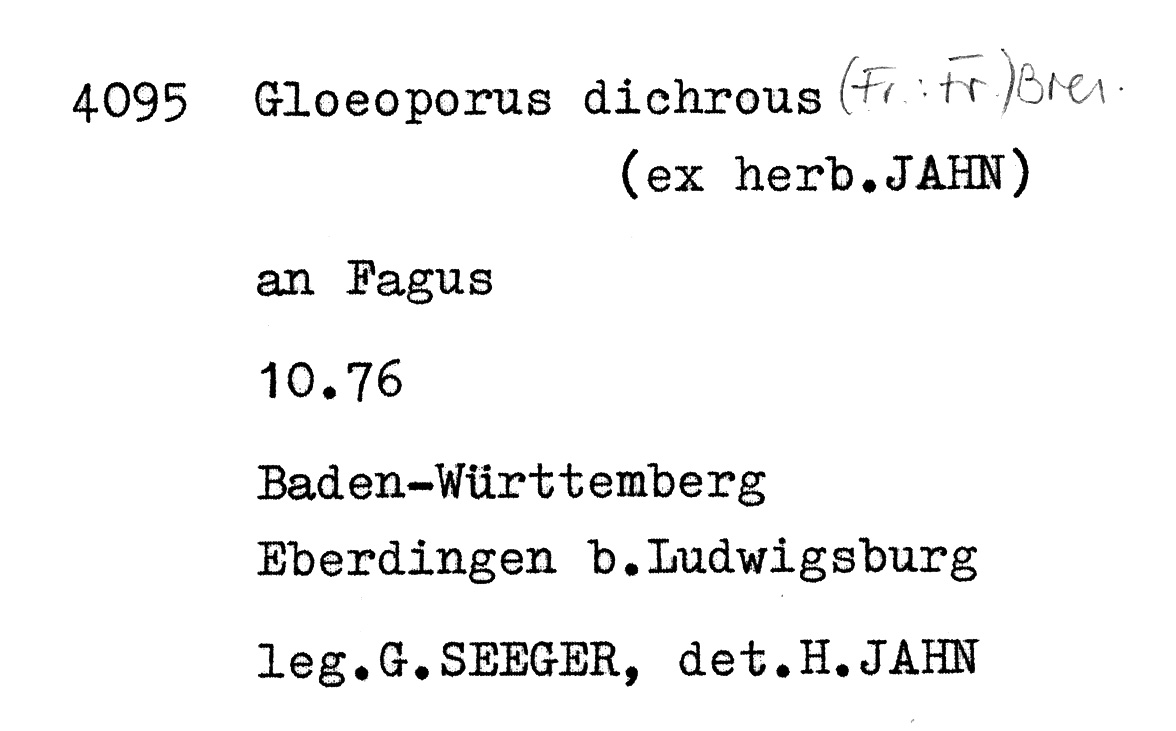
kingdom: Plantae
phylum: Tracheophyta
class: Magnoliopsida
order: Fagales
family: Fagaceae
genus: Fagus
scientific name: Fagus sylvatica
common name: Beech
